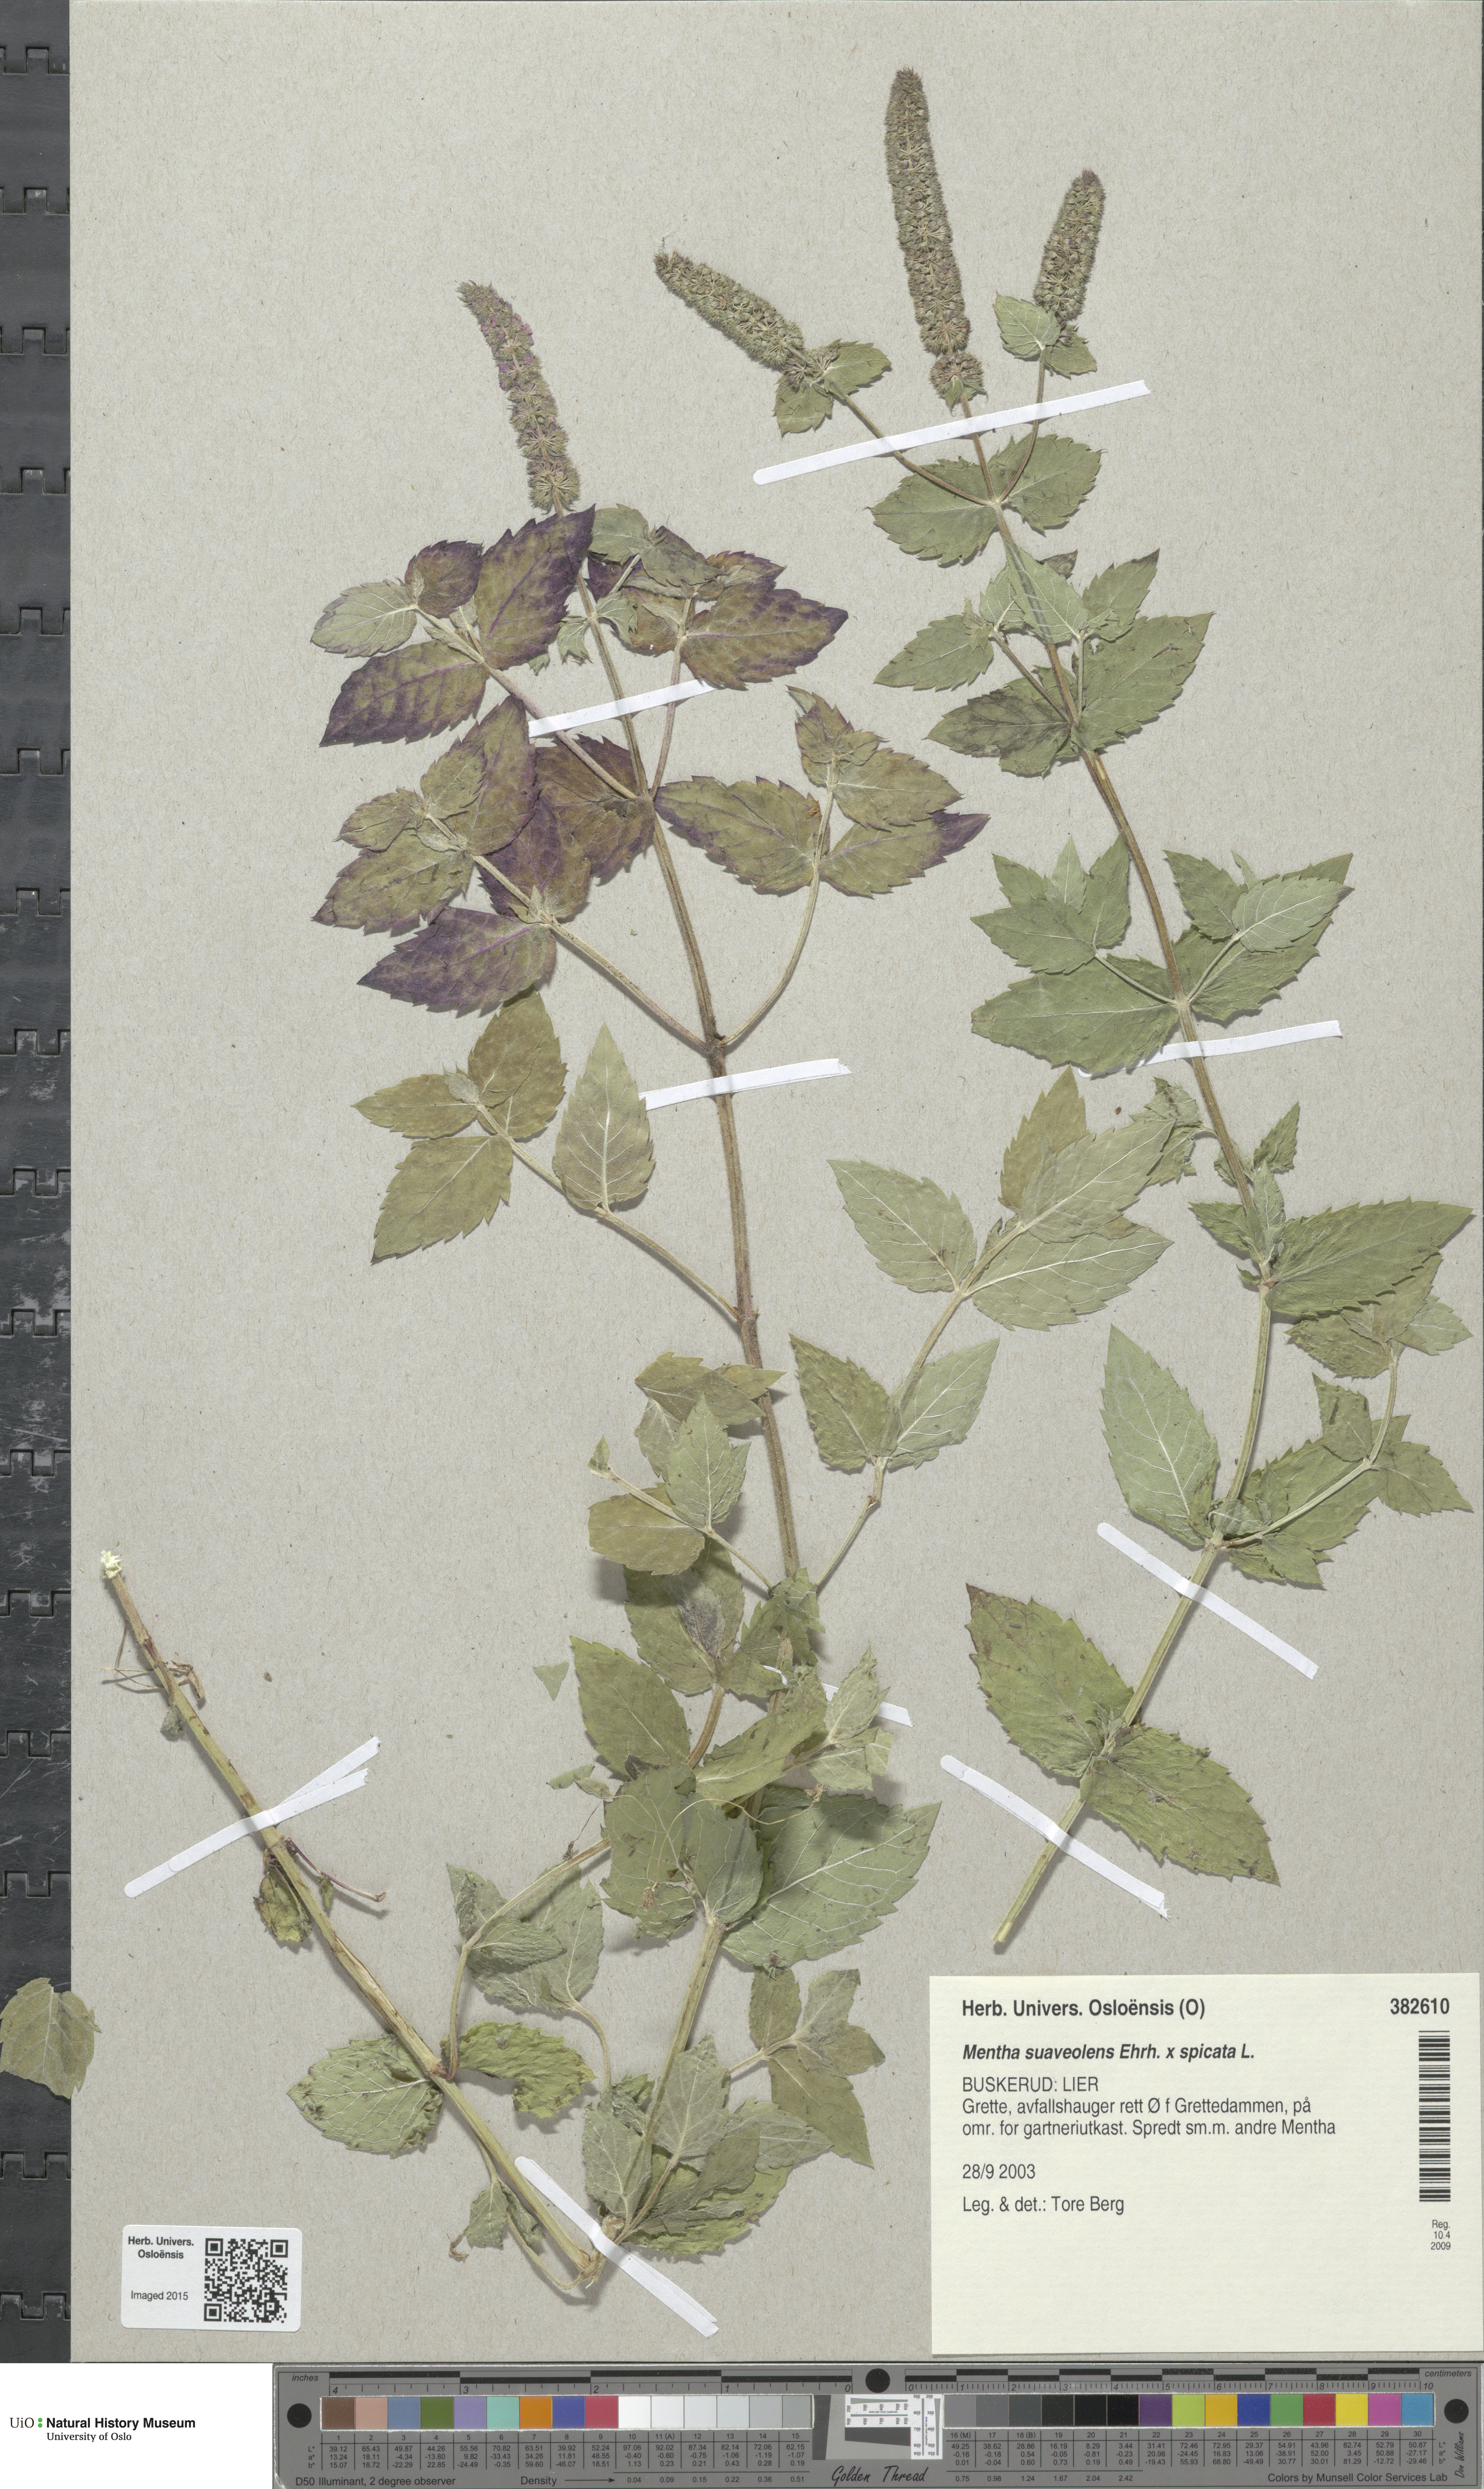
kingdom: Plantae
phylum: Tracheophyta
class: Magnoliopsida
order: Lamiales
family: Lamiaceae
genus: Mentha
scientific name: Mentha
